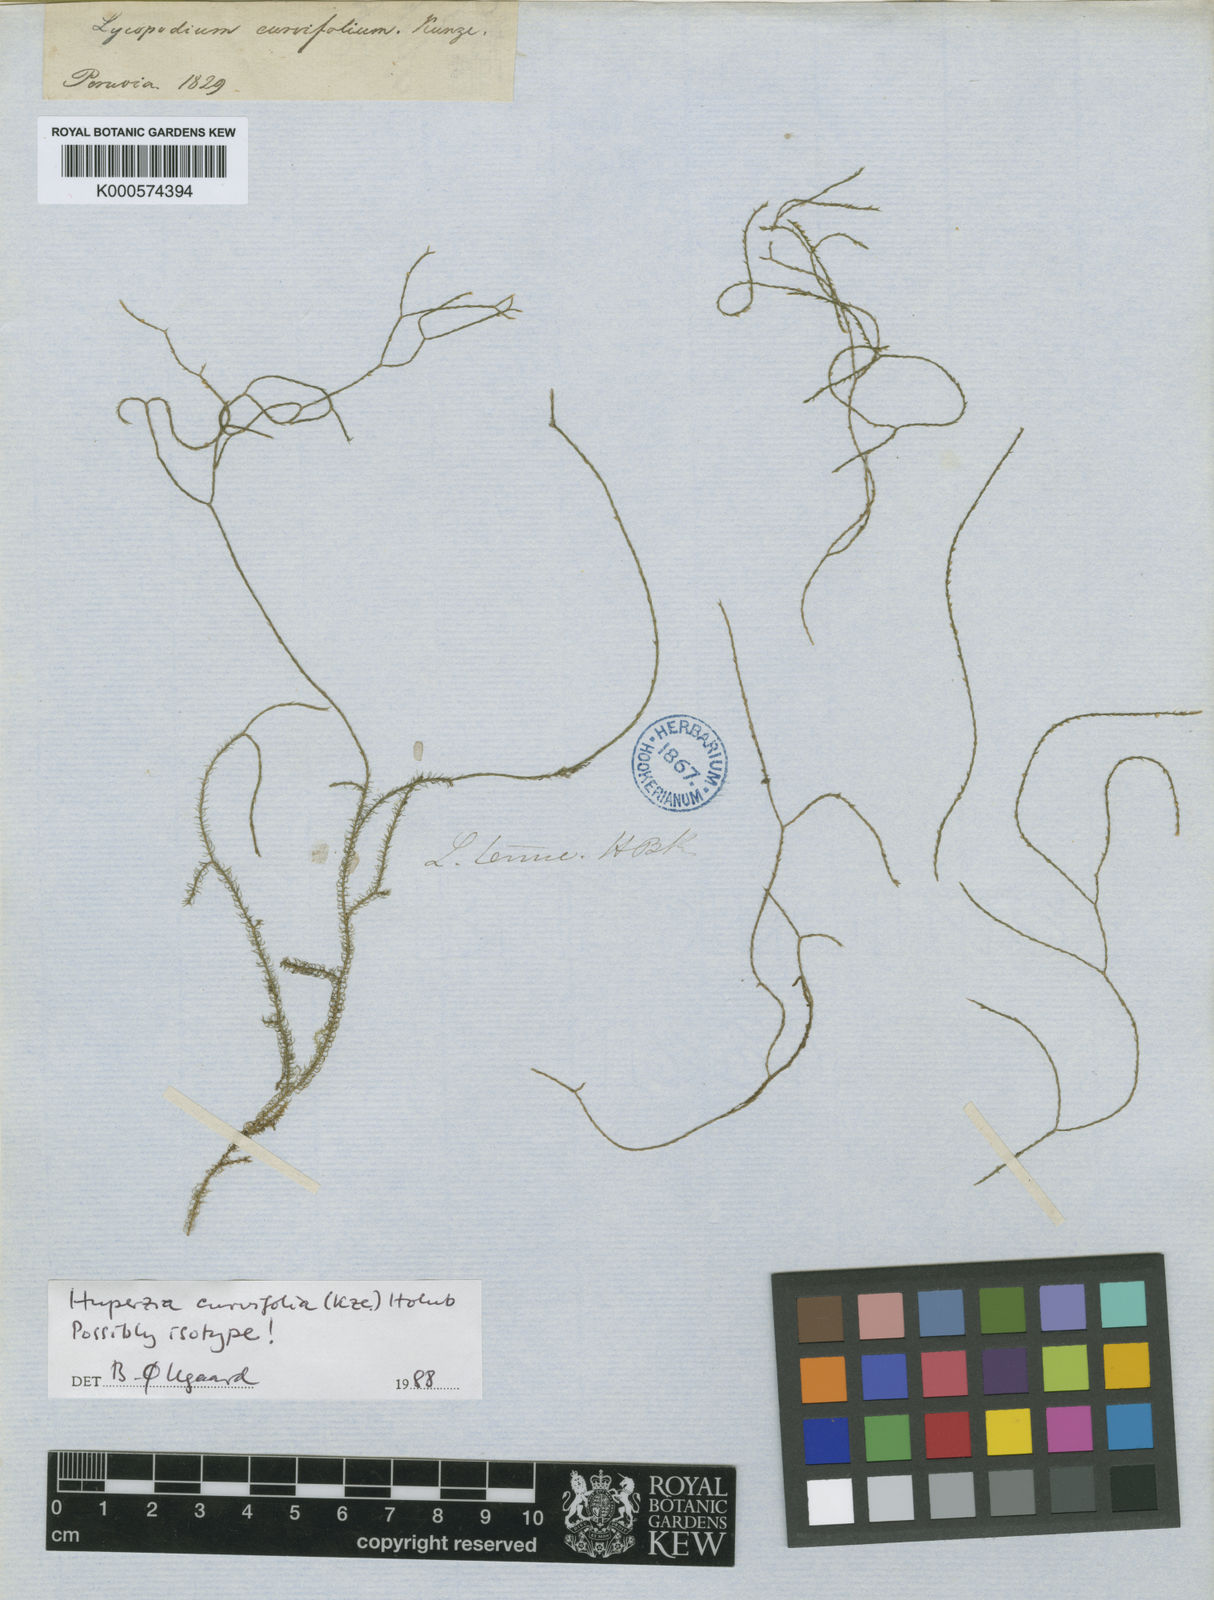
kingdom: Plantae
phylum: Tracheophyta
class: Lycopodiopsida
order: Lycopodiales
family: Lycopodiaceae
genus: Phlegmariurus
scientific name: Phlegmariurus curvifolius
